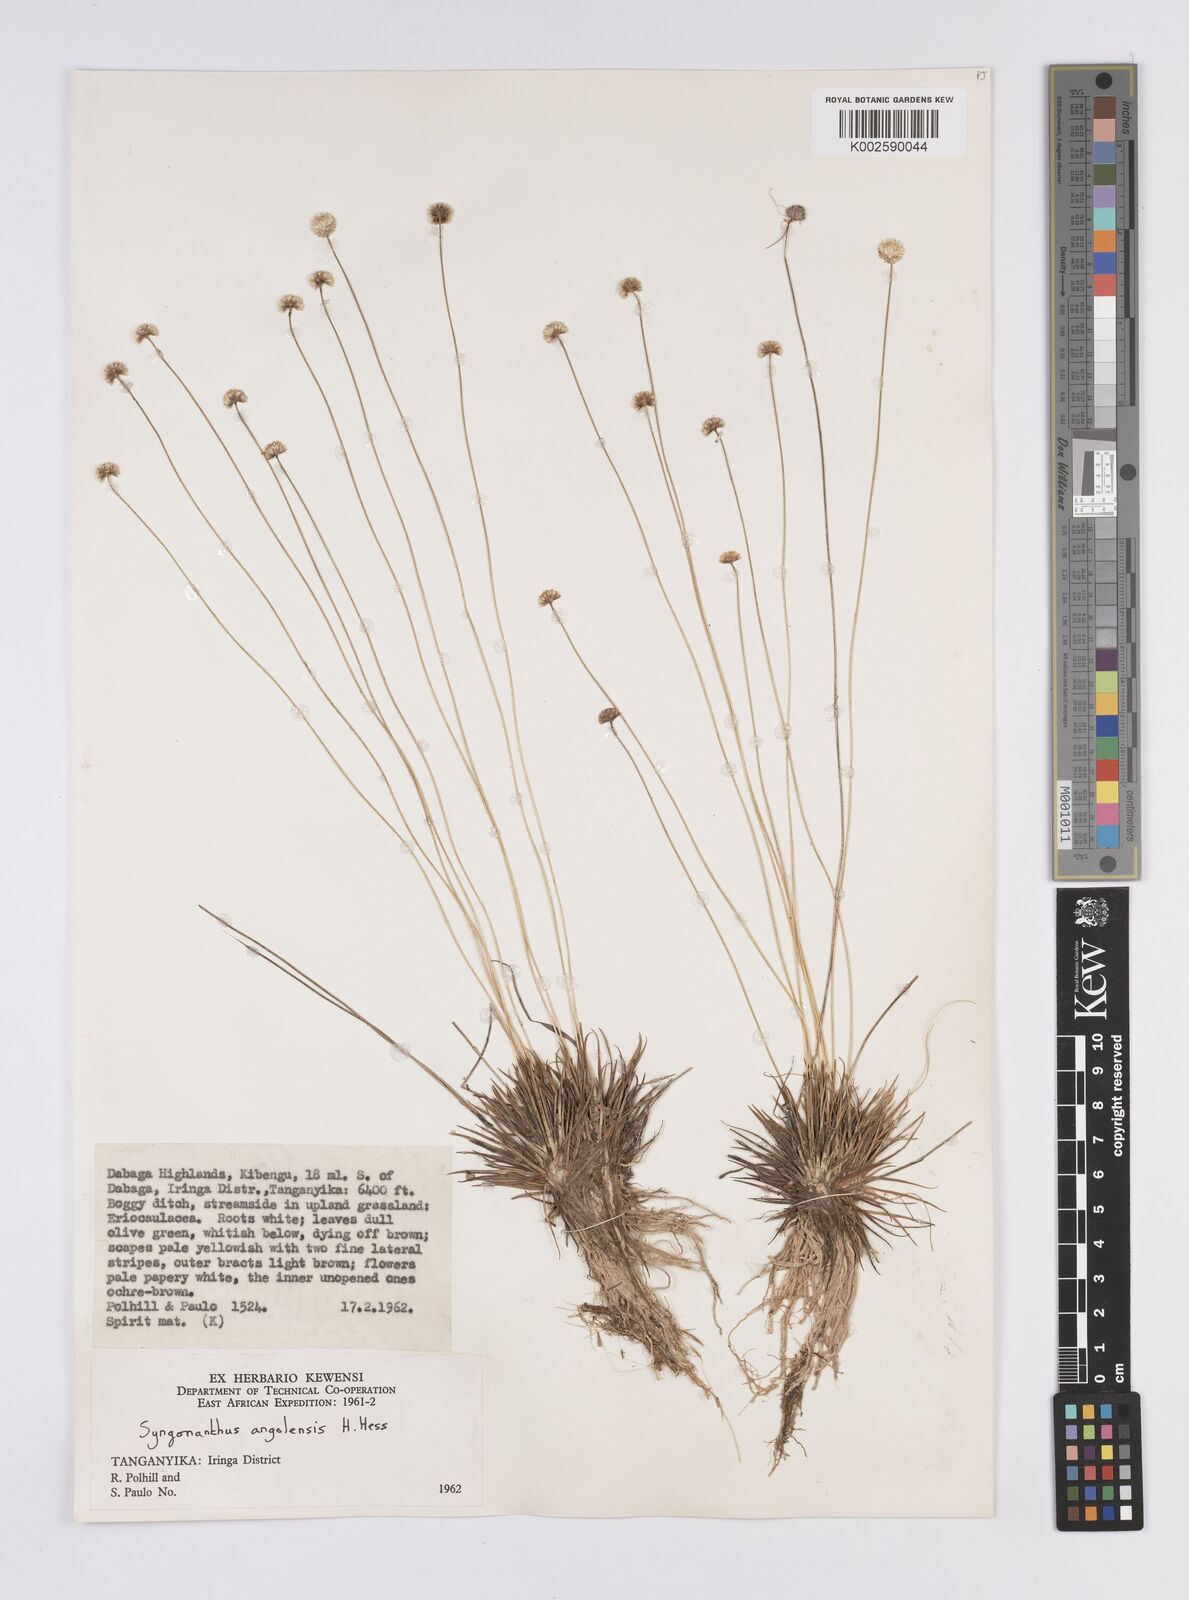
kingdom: Plantae
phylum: Tracheophyta
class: Liliopsida
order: Poales
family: Eriocaulaceae
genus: Syngonanthus
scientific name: Syngonanthus angolensis
